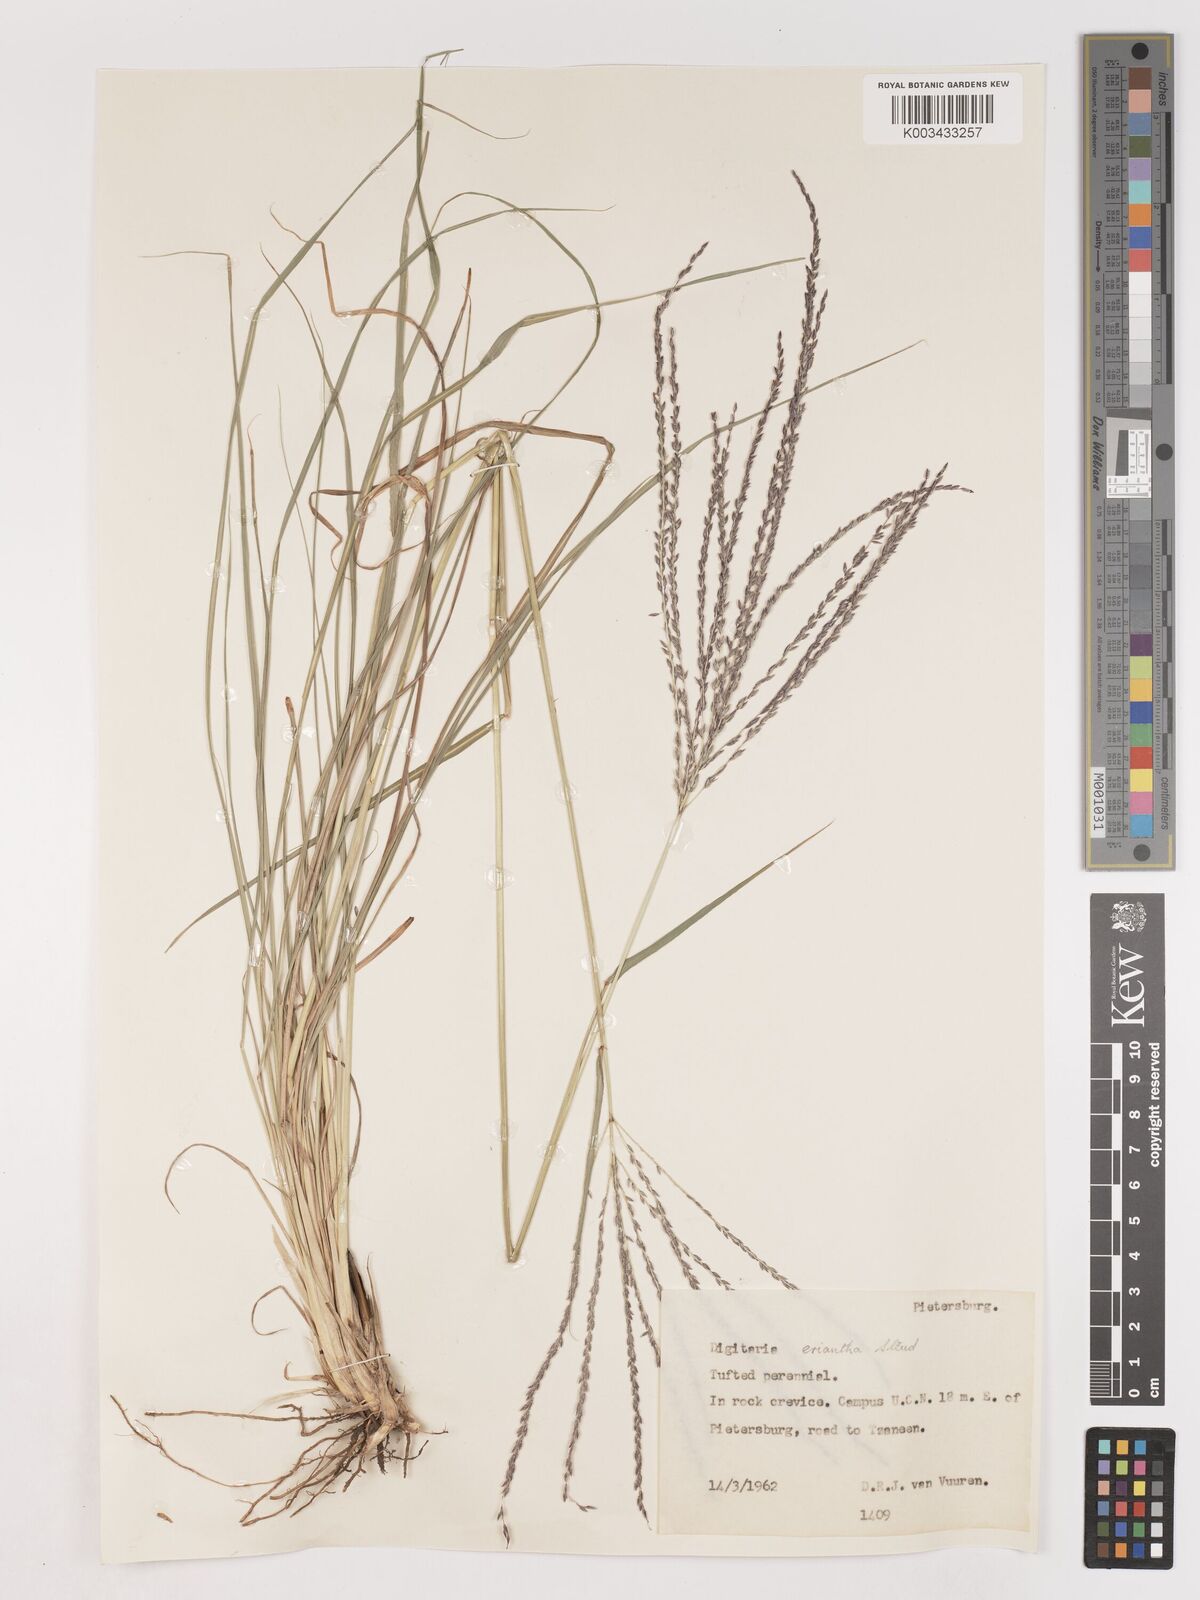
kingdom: Plantae
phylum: Tracheophyta
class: Liliopsida
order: Poales
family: Poaceae
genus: Digitaria
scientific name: Digitaria eriantha
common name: Digitgrass
